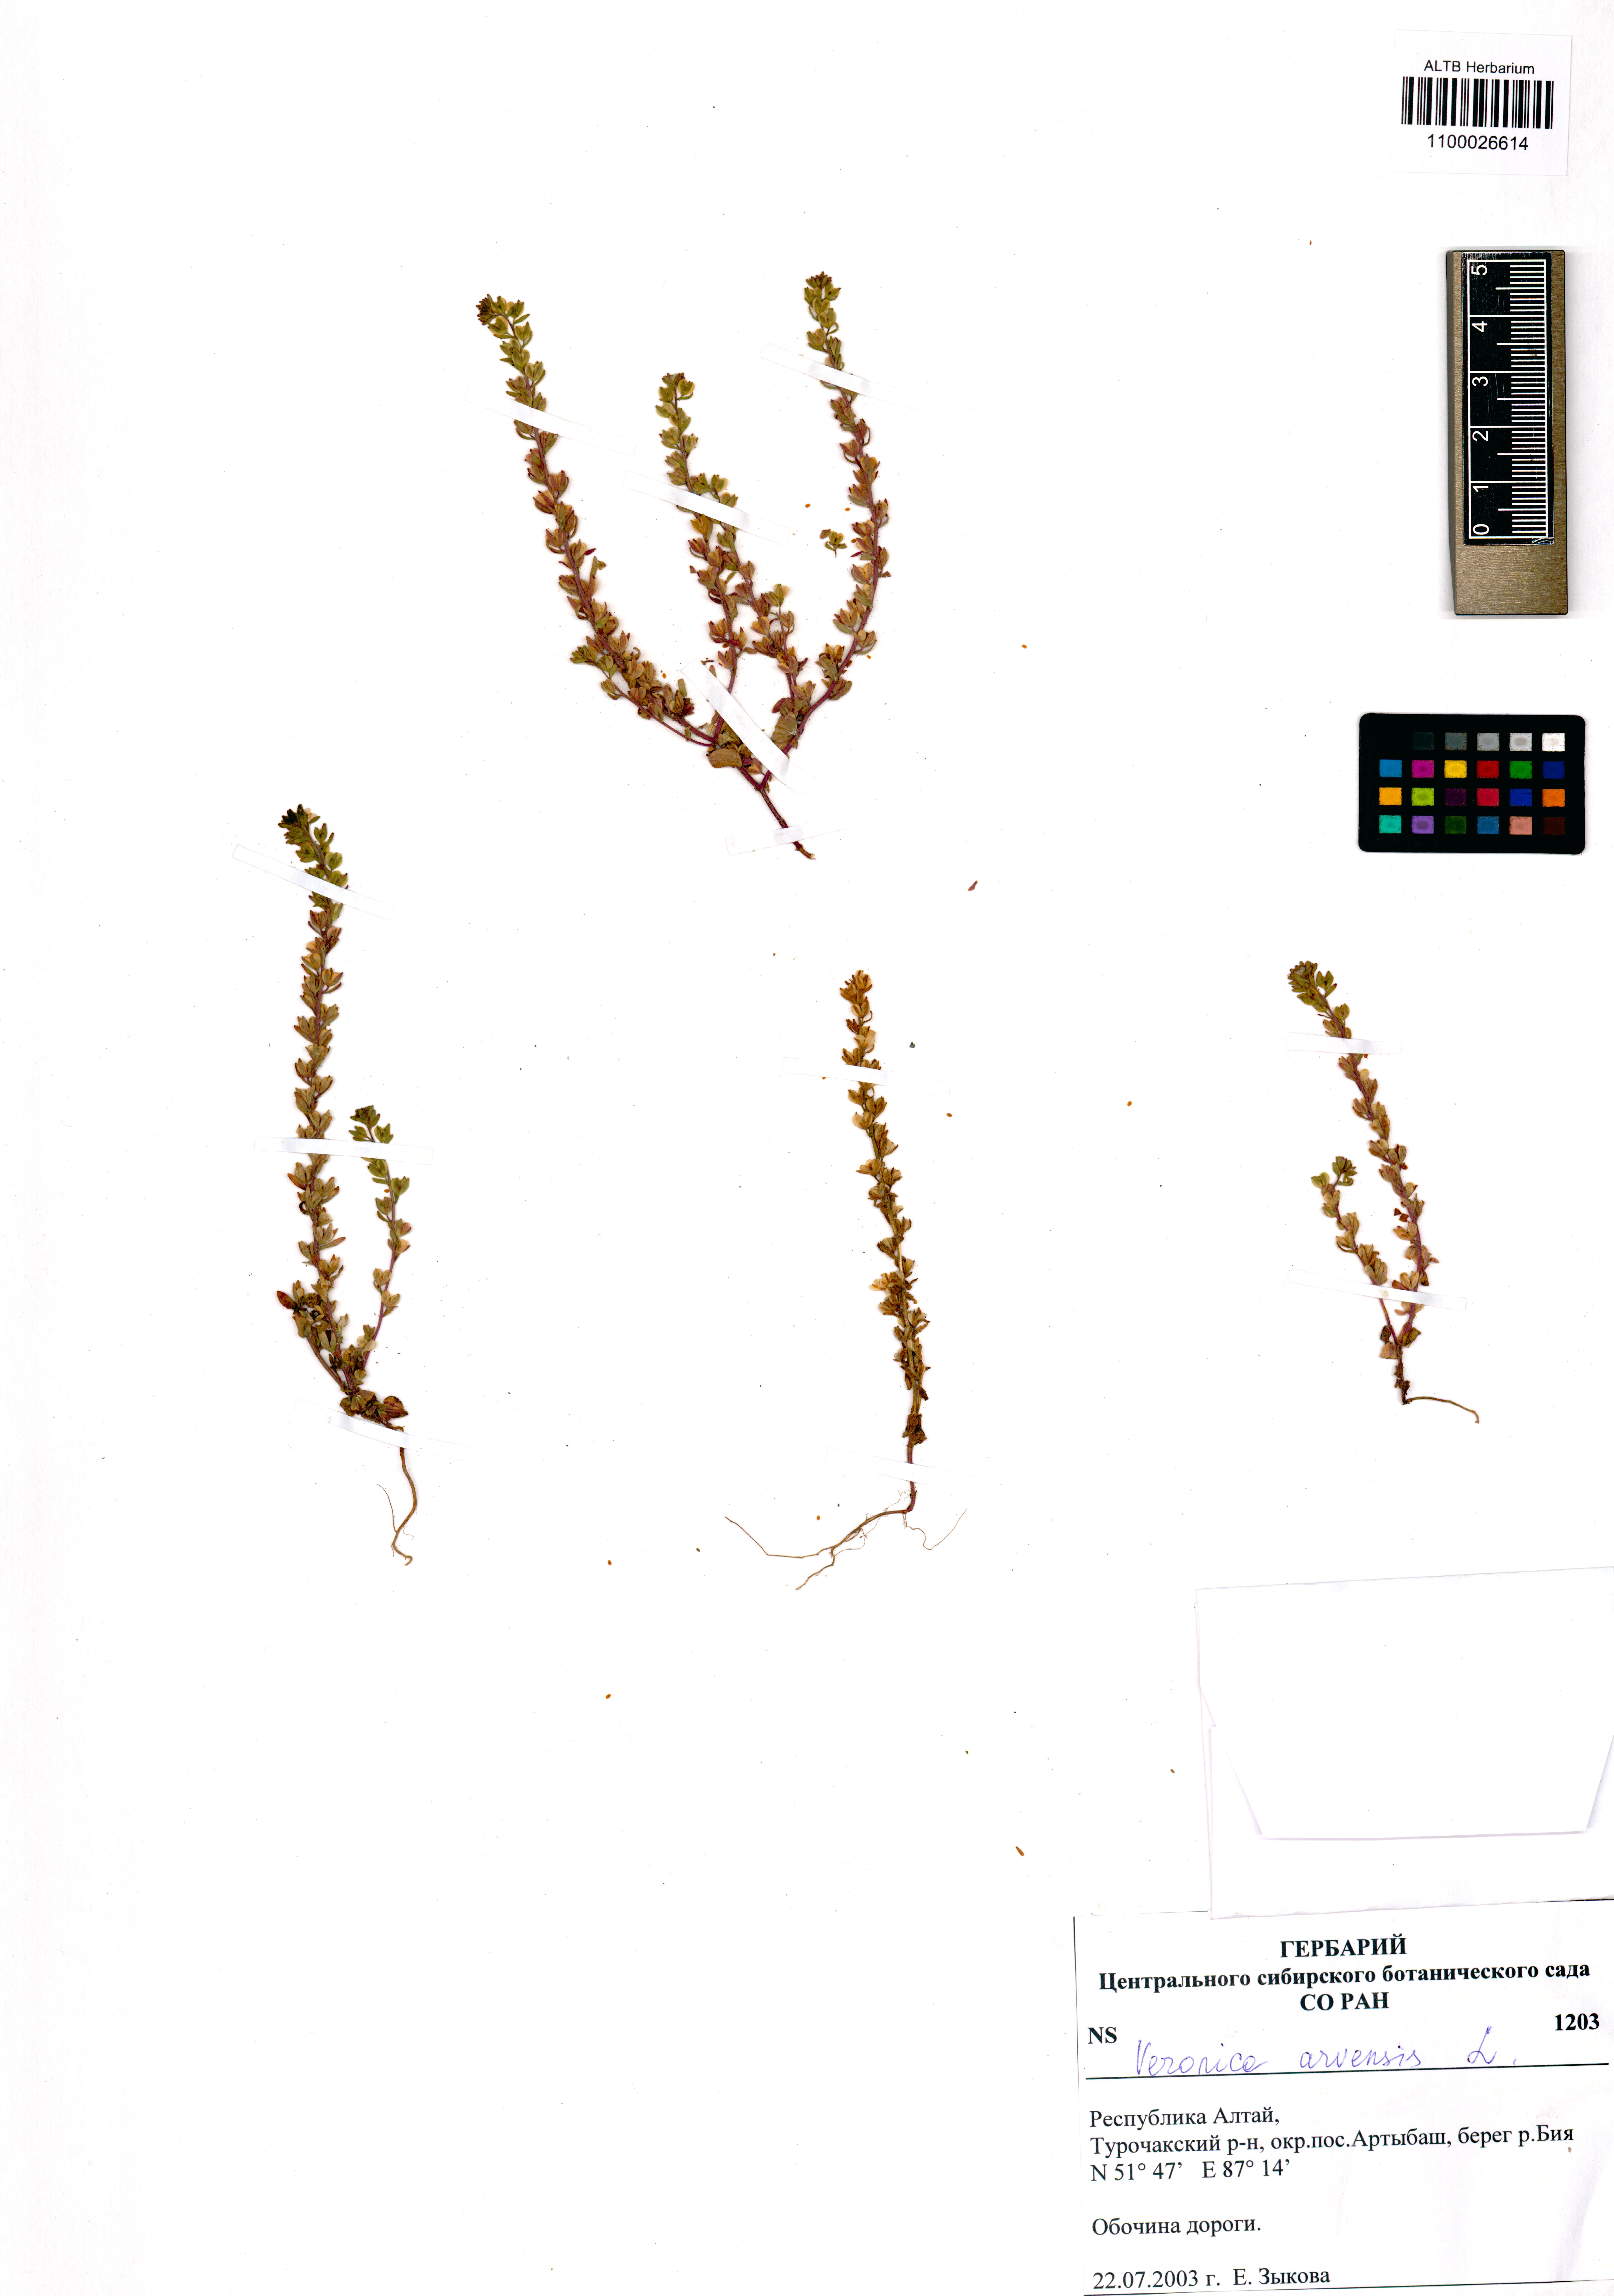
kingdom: Plantae
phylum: Tracheophyta
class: Magnoliopsida
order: Lamiales
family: Plantaginaceae
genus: Veronica
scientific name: Veronica arvensis
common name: Corn speedwell
